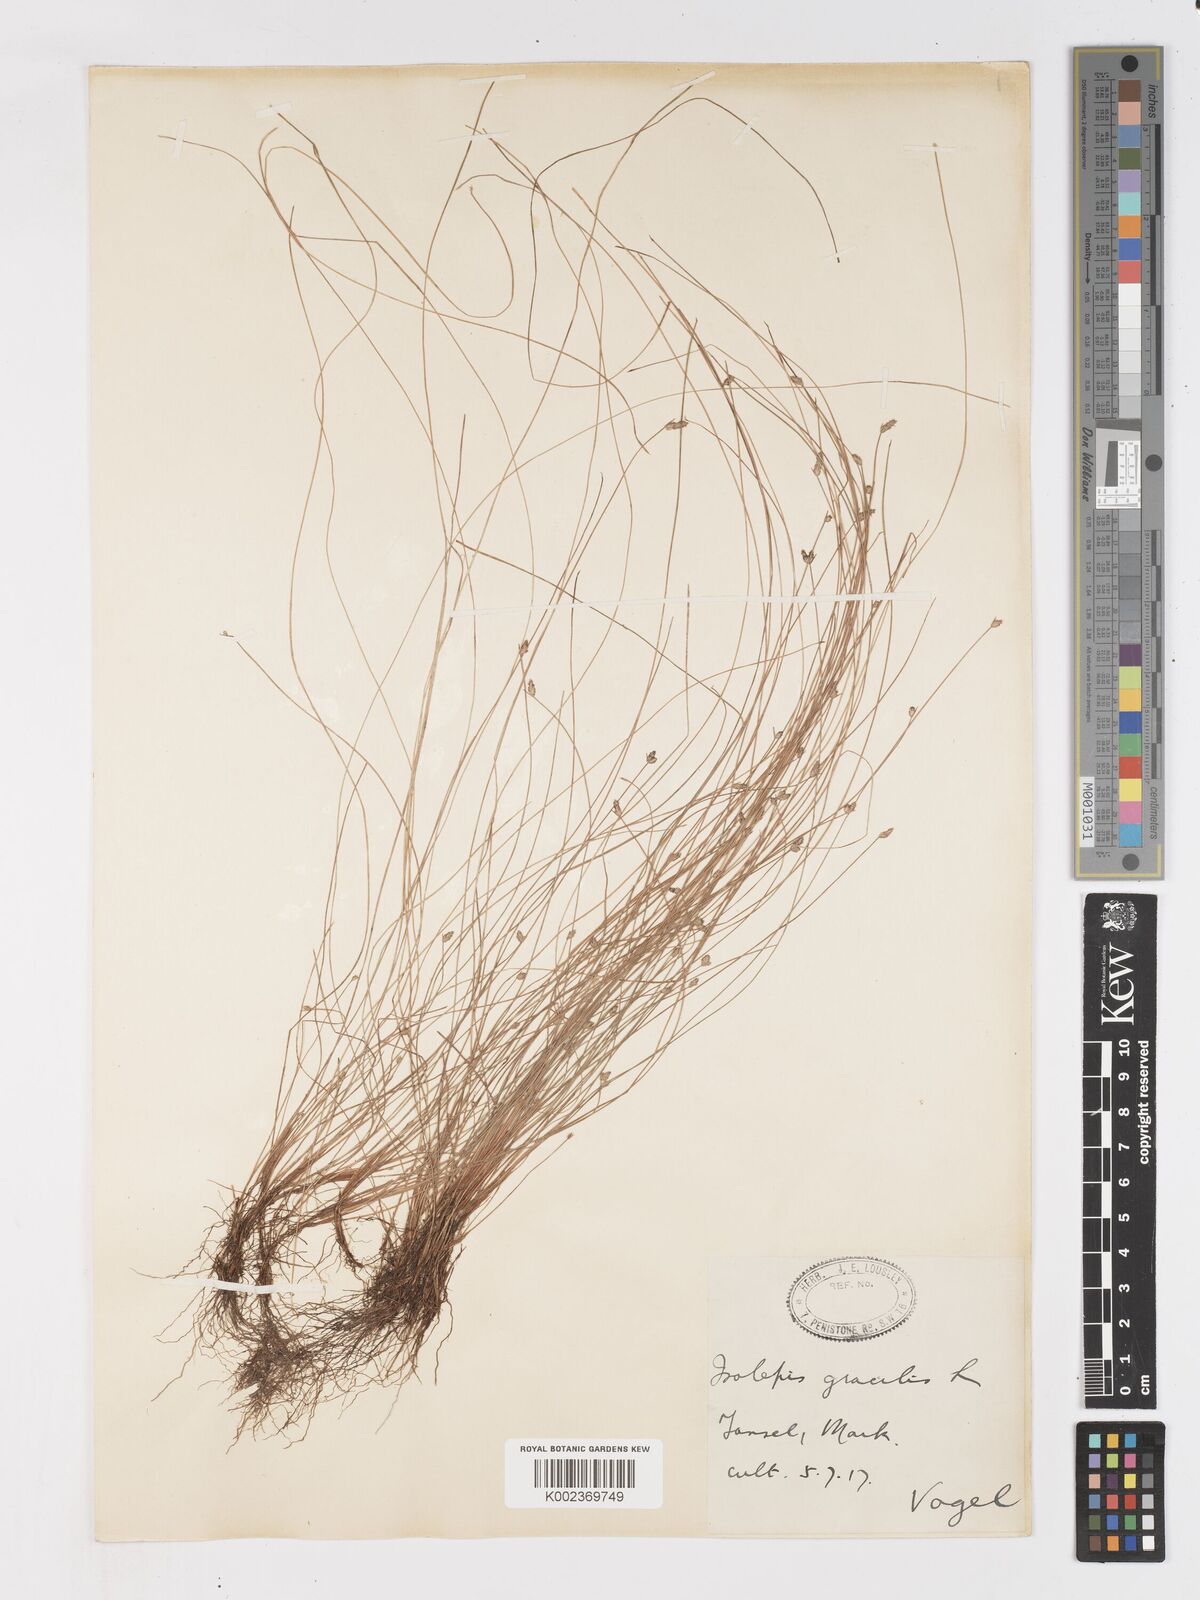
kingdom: Plantae
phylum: Tracheophyta
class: Liliopsida
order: Poales
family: Cyperaceae
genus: Isolepis
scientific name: Isolepis cernua
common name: Slender club-rush
